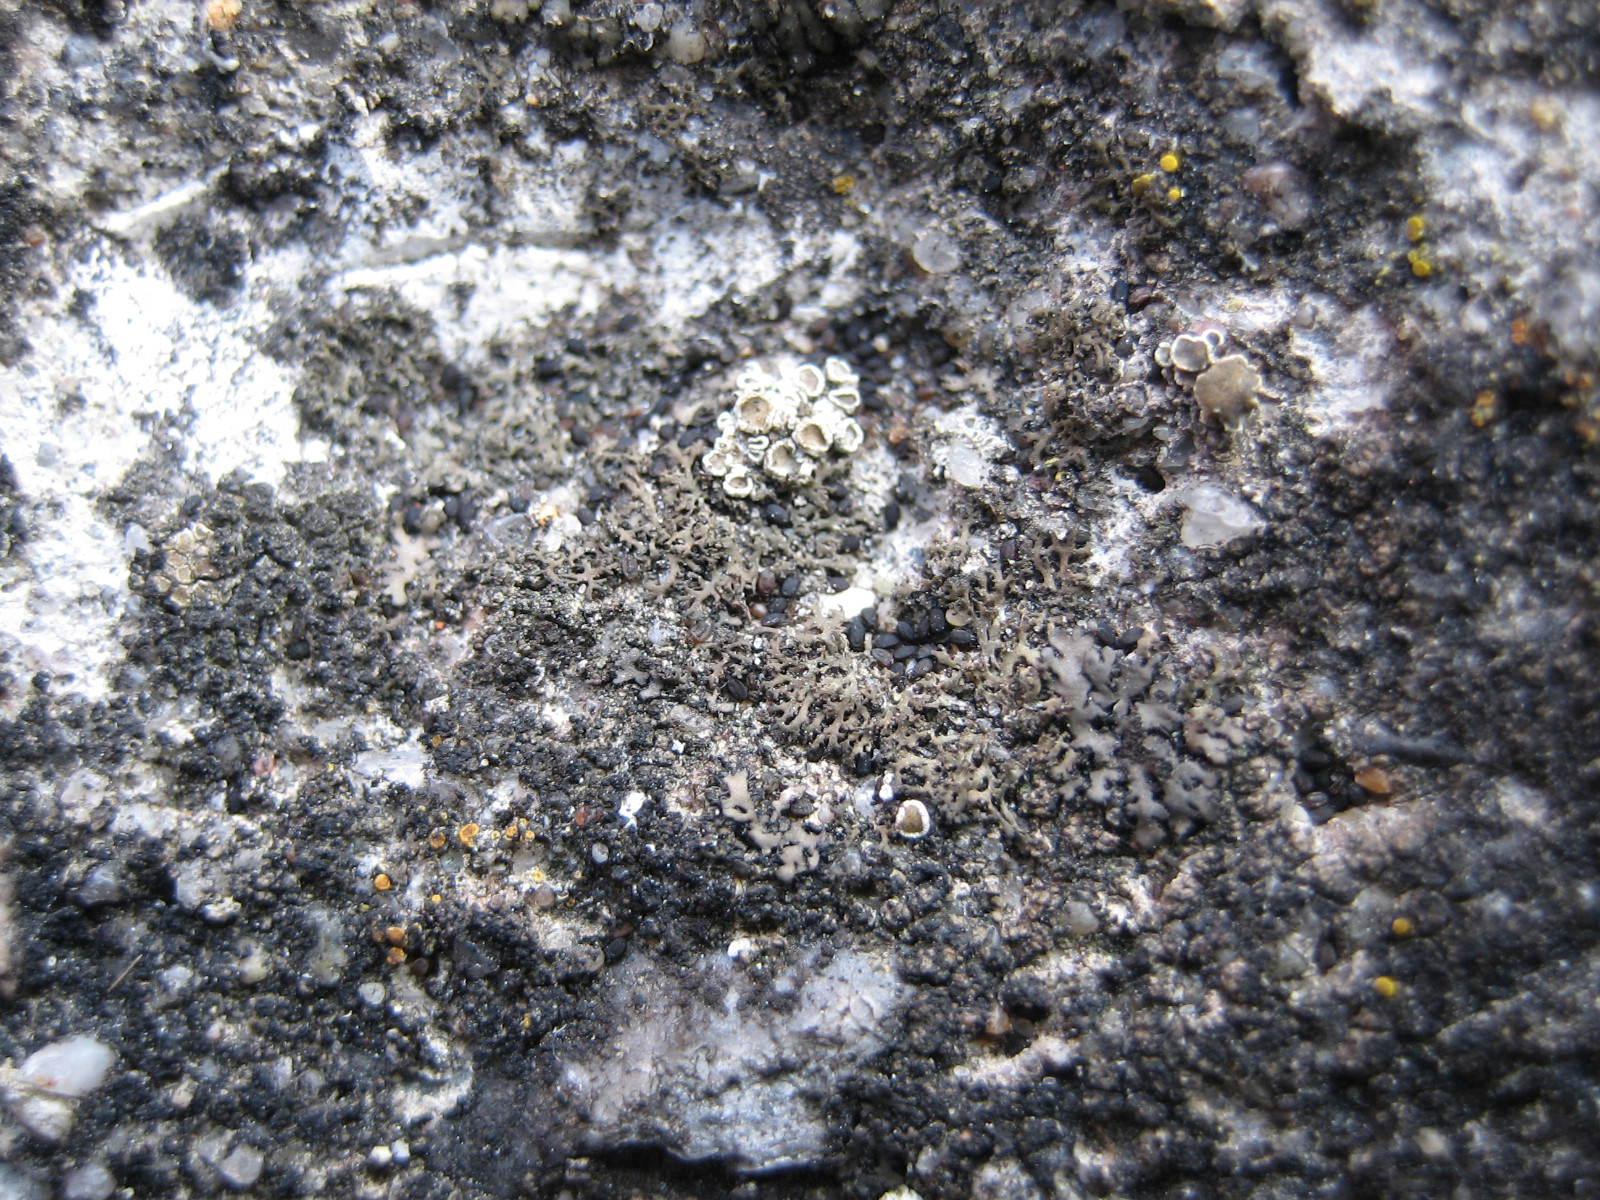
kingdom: Fungi
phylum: Ascomycota
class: Lecanoromycetes
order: Caliciales
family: Physciaceae
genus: Physciella
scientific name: Physciella nigricans
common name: sortagtig rosetlav
